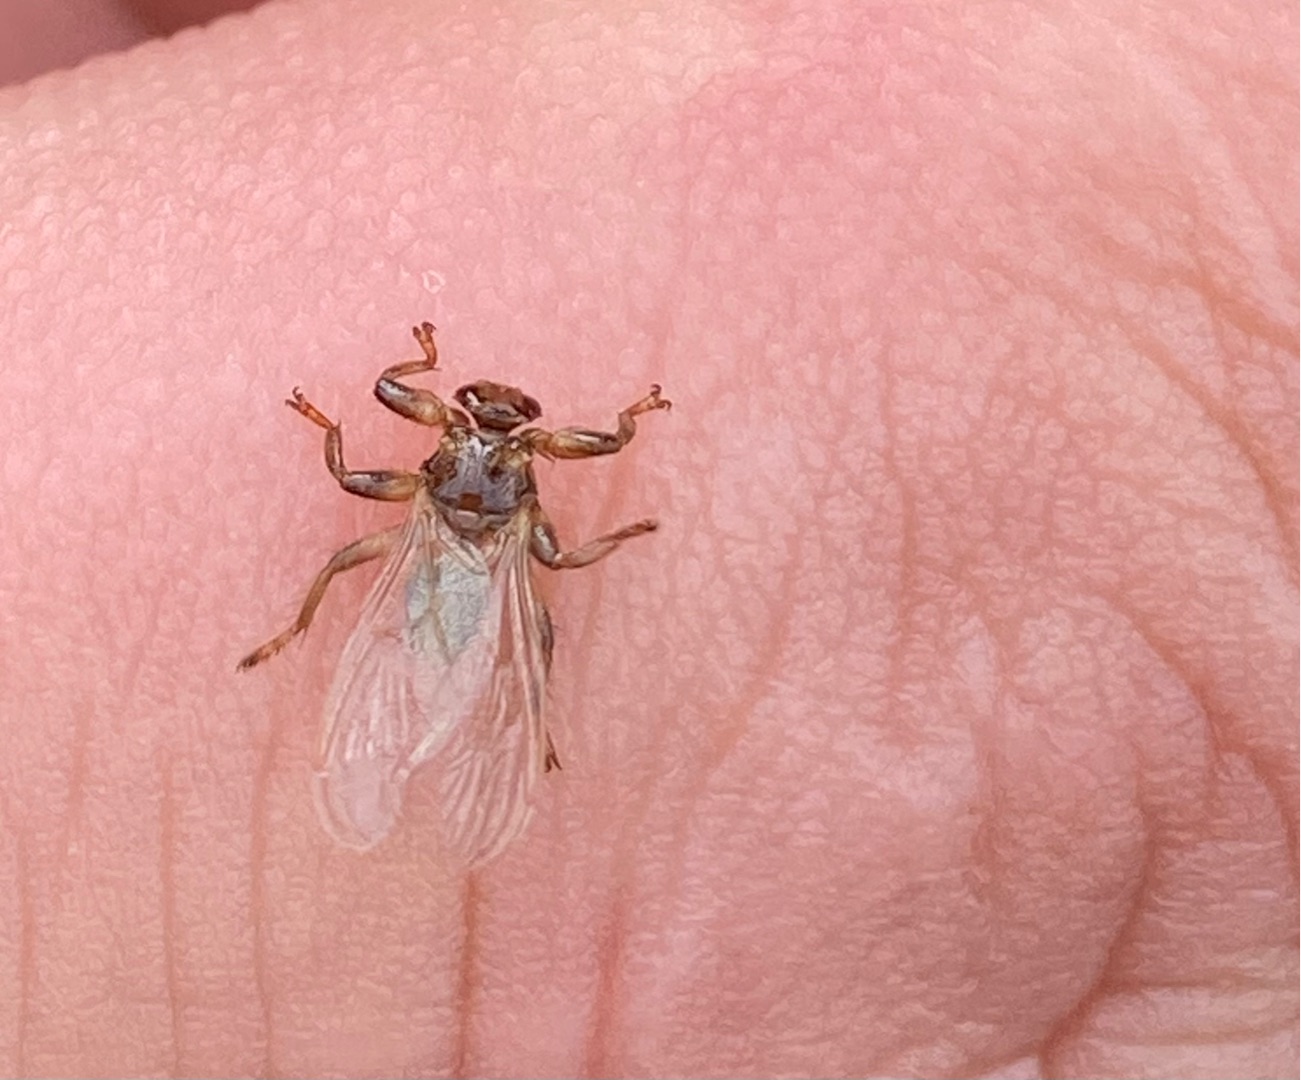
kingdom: Animalia
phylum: Arthropoda
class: Insecta
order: Diptera
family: Hippoboscidae
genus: Lipoptena
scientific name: Lipoptena cervi
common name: Hjortelus
